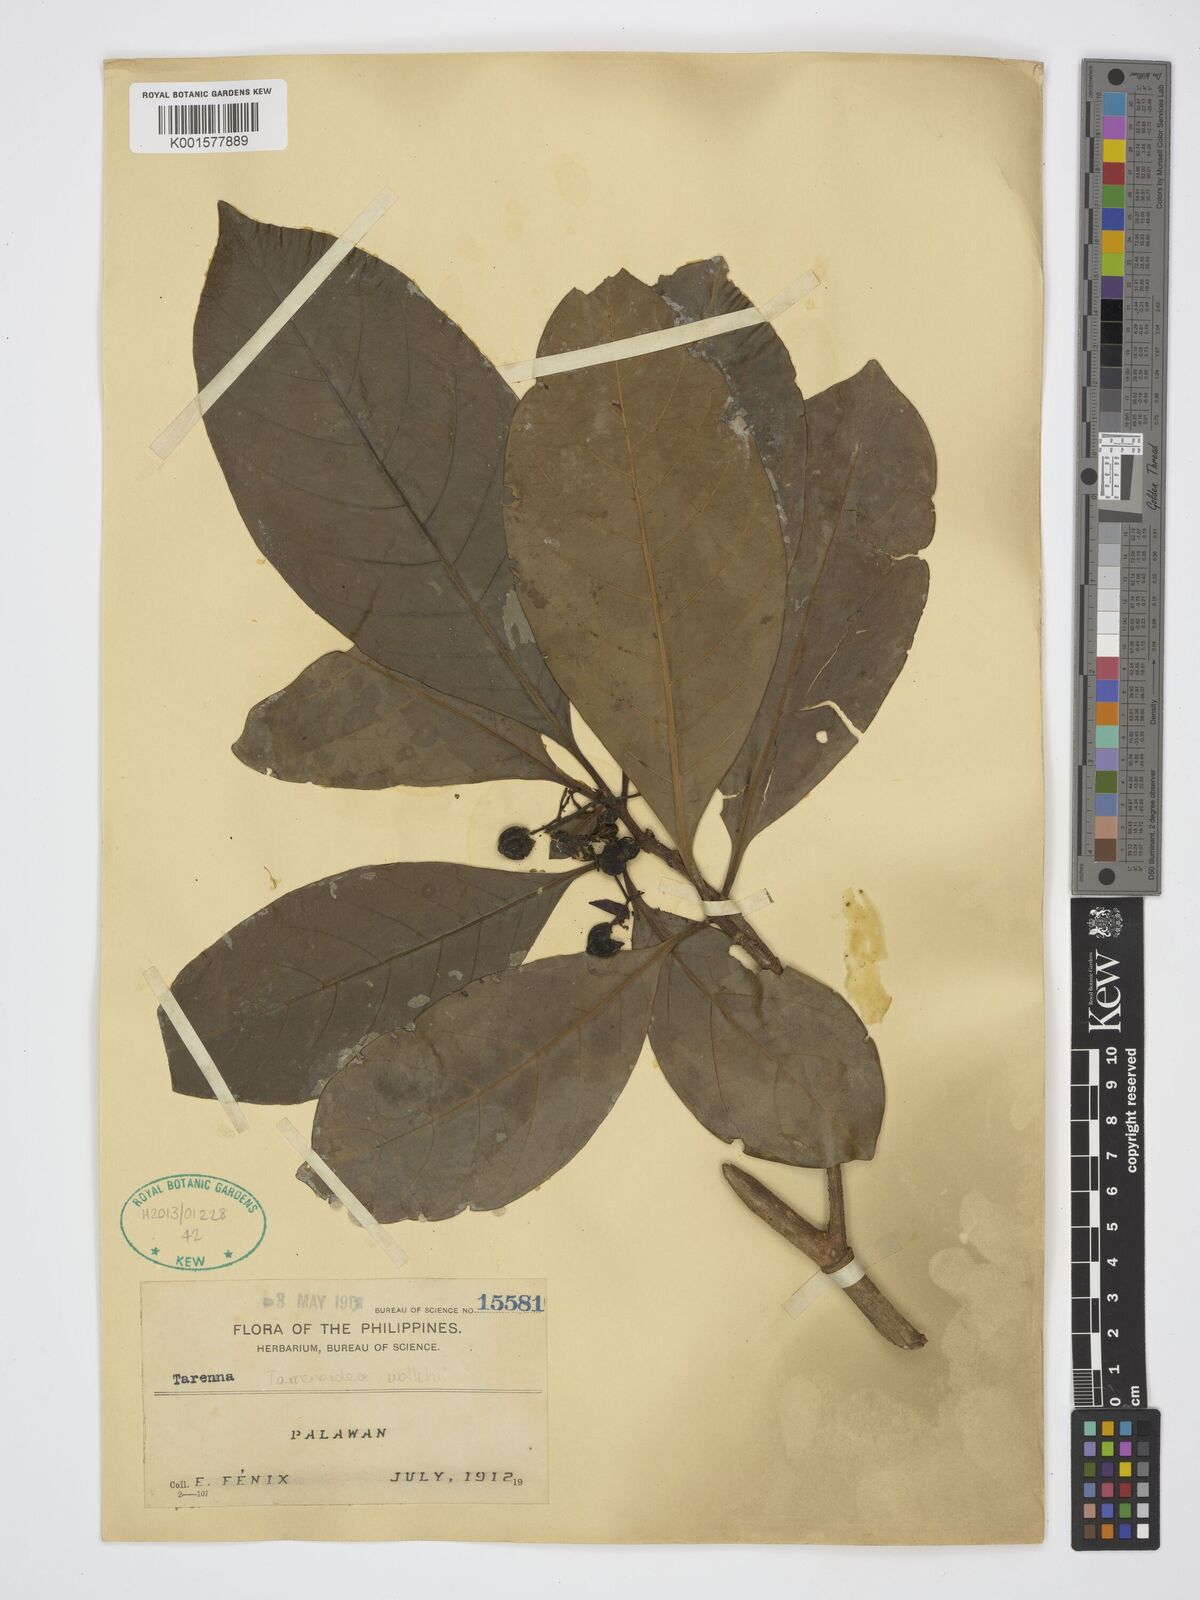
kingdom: Plantae
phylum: Tracheophyta
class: Magnoliopsida
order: Gentianales
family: Rubiaceae
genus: Tarennoidea
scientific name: Tarennoidea wallichii
